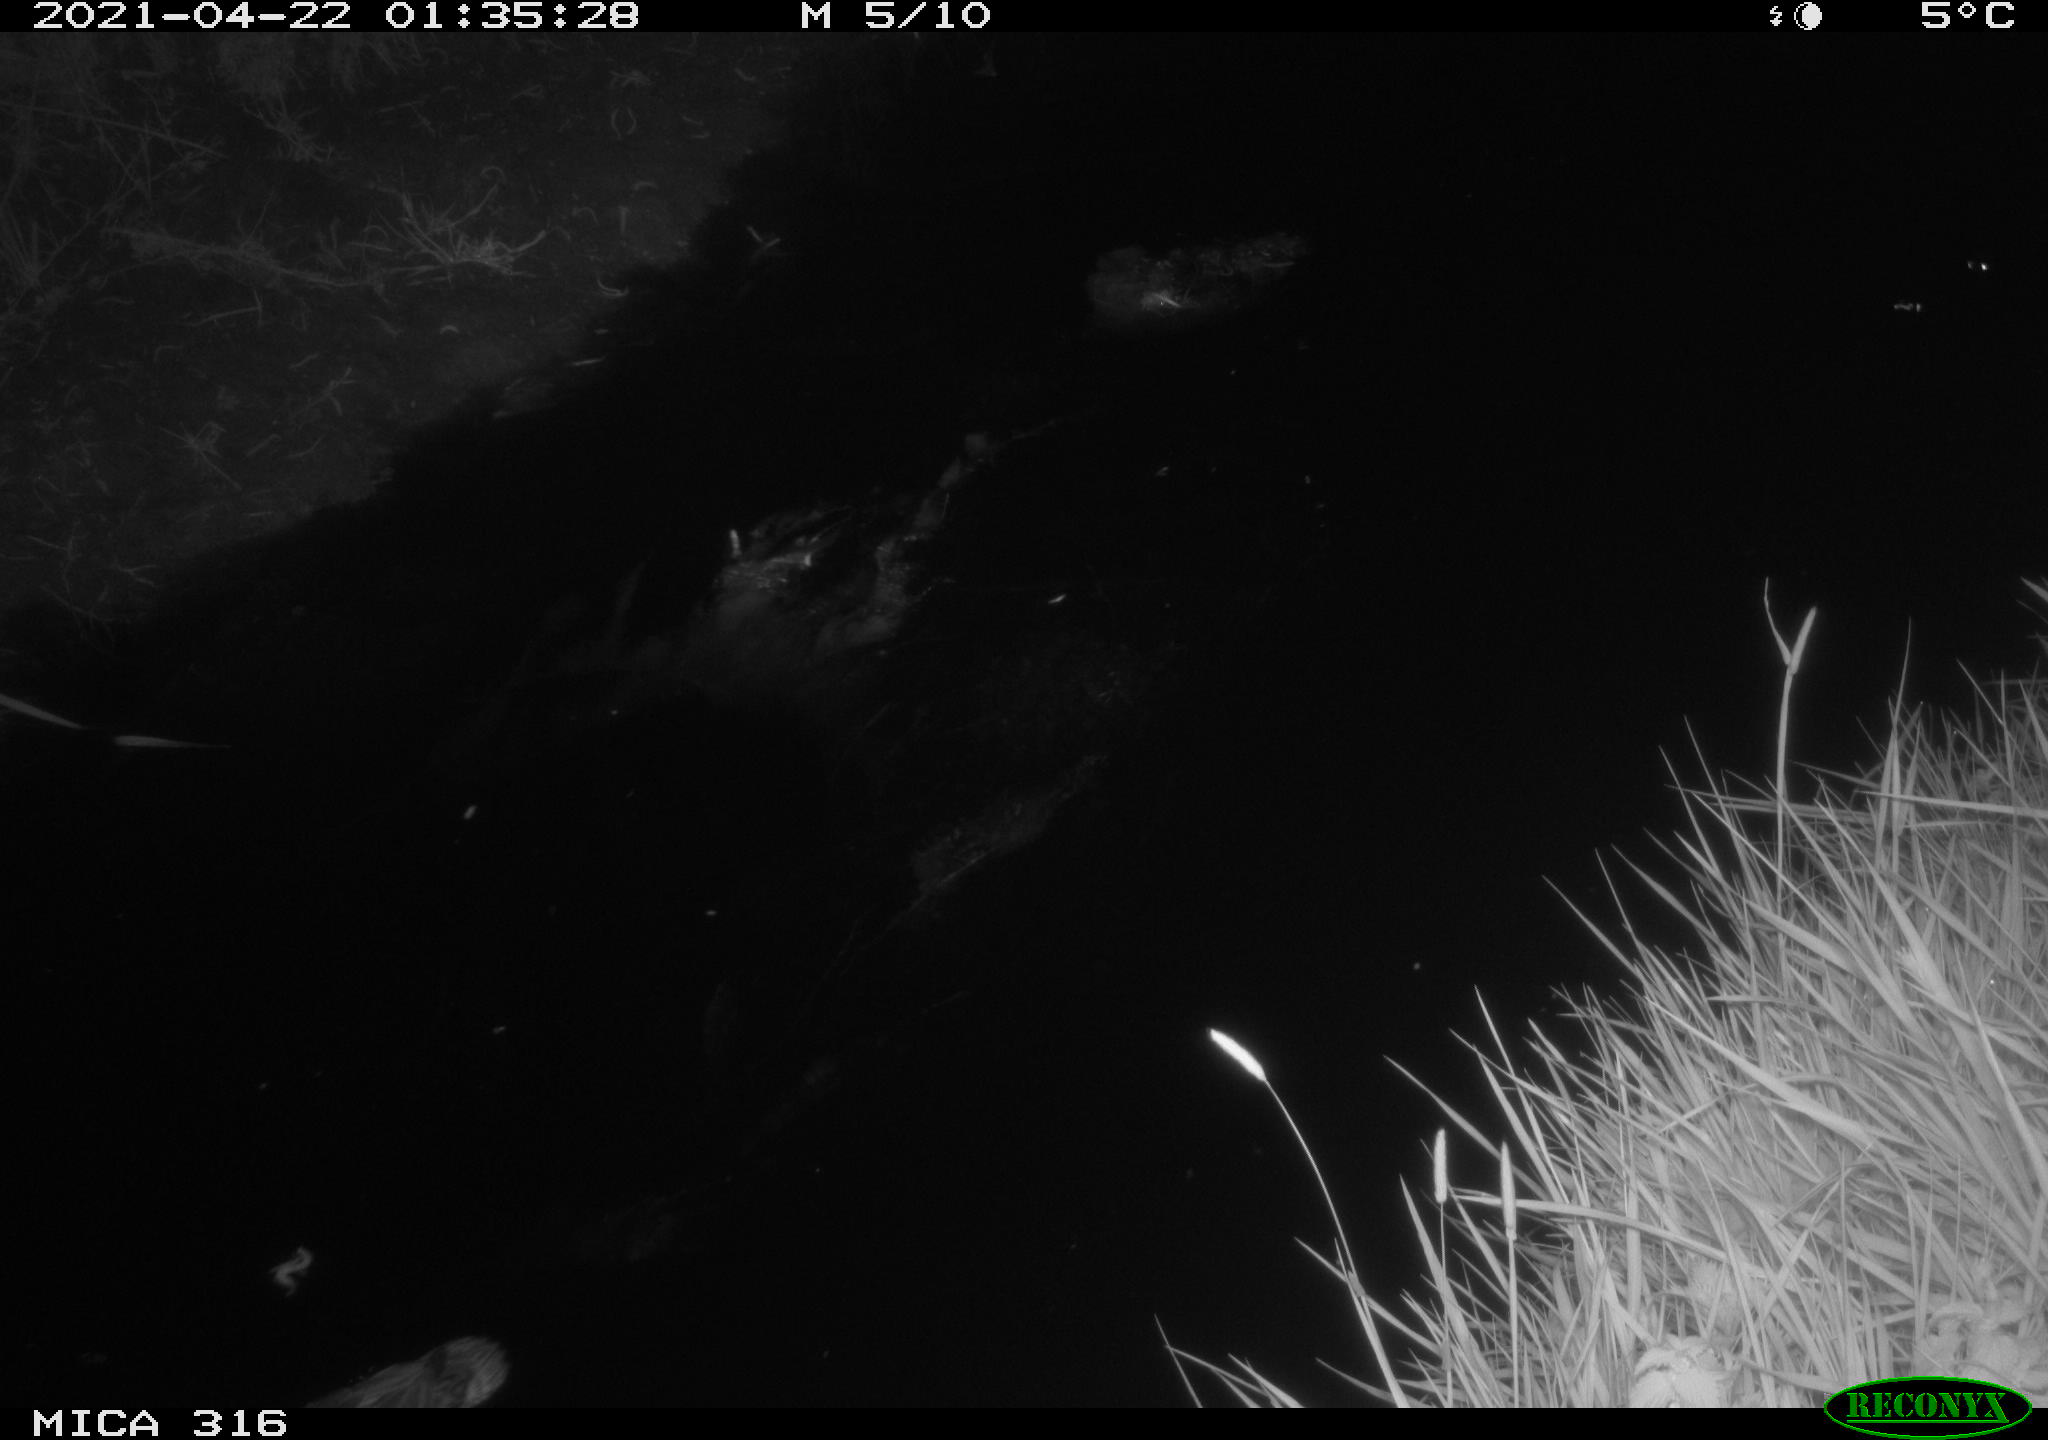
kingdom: Animalia
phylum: Chordata
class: Aves
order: Anseriformes
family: Anatidae
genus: Anas
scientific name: Anas platyrhynchos
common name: Mallard
